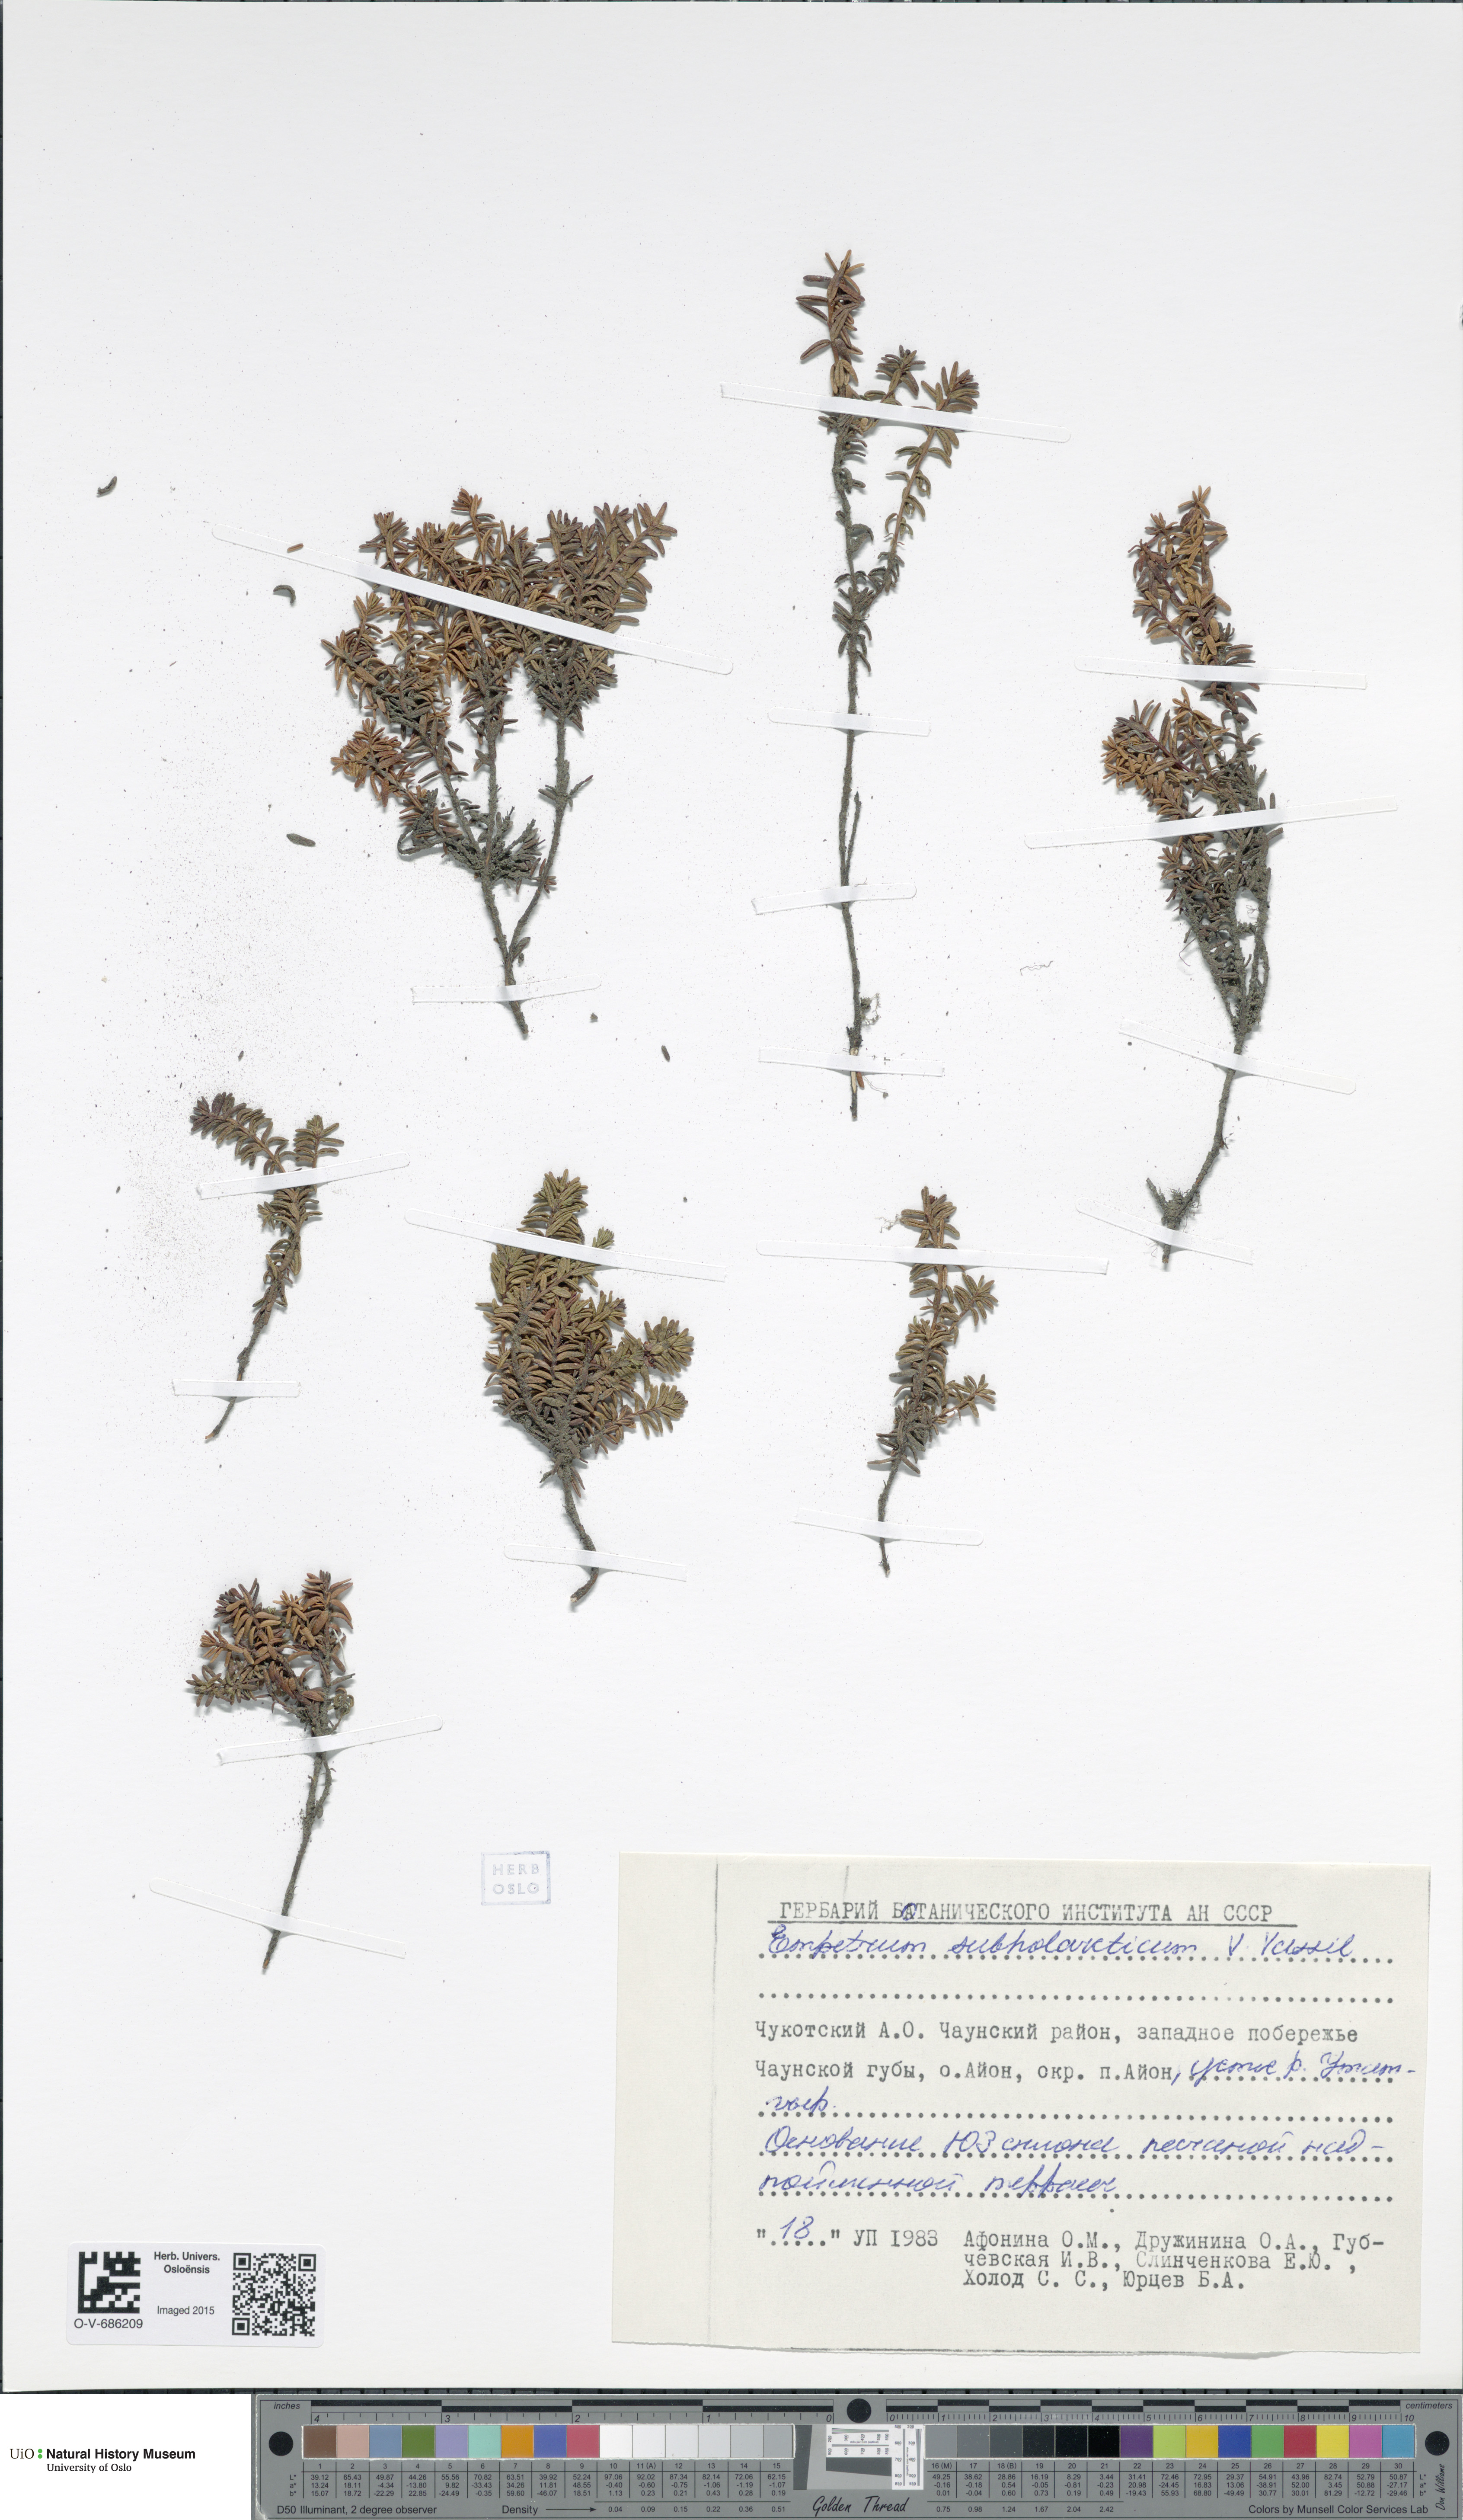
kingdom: Plantae
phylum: Tracheophyta
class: Magnoliopsida
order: Ericales
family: Ericaceae
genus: Empetrum
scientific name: Empetrum nigrum
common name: Black crowberry
